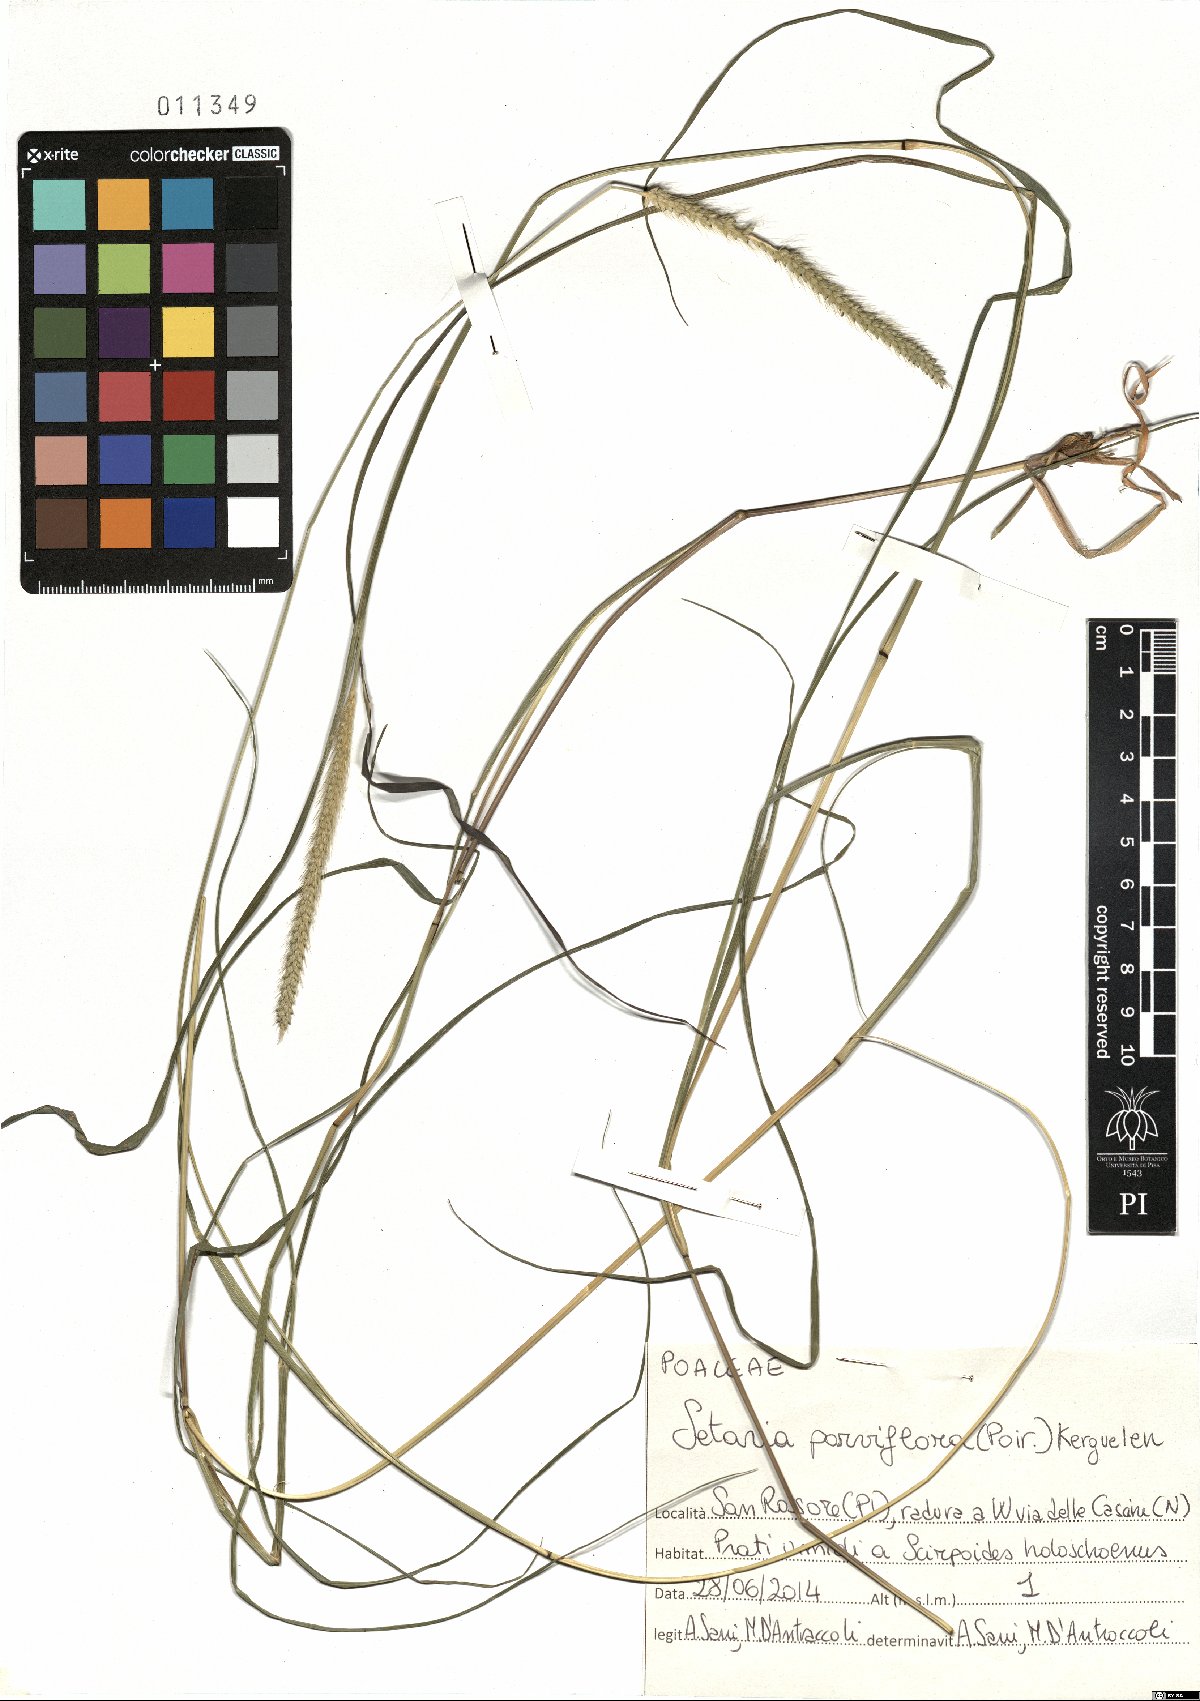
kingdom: Plantae
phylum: Tracheophyta
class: Liliopsida
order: Poales
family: Poaceae
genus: Setaria
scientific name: Setaria parviflora
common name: Knotroot bristle-grass
